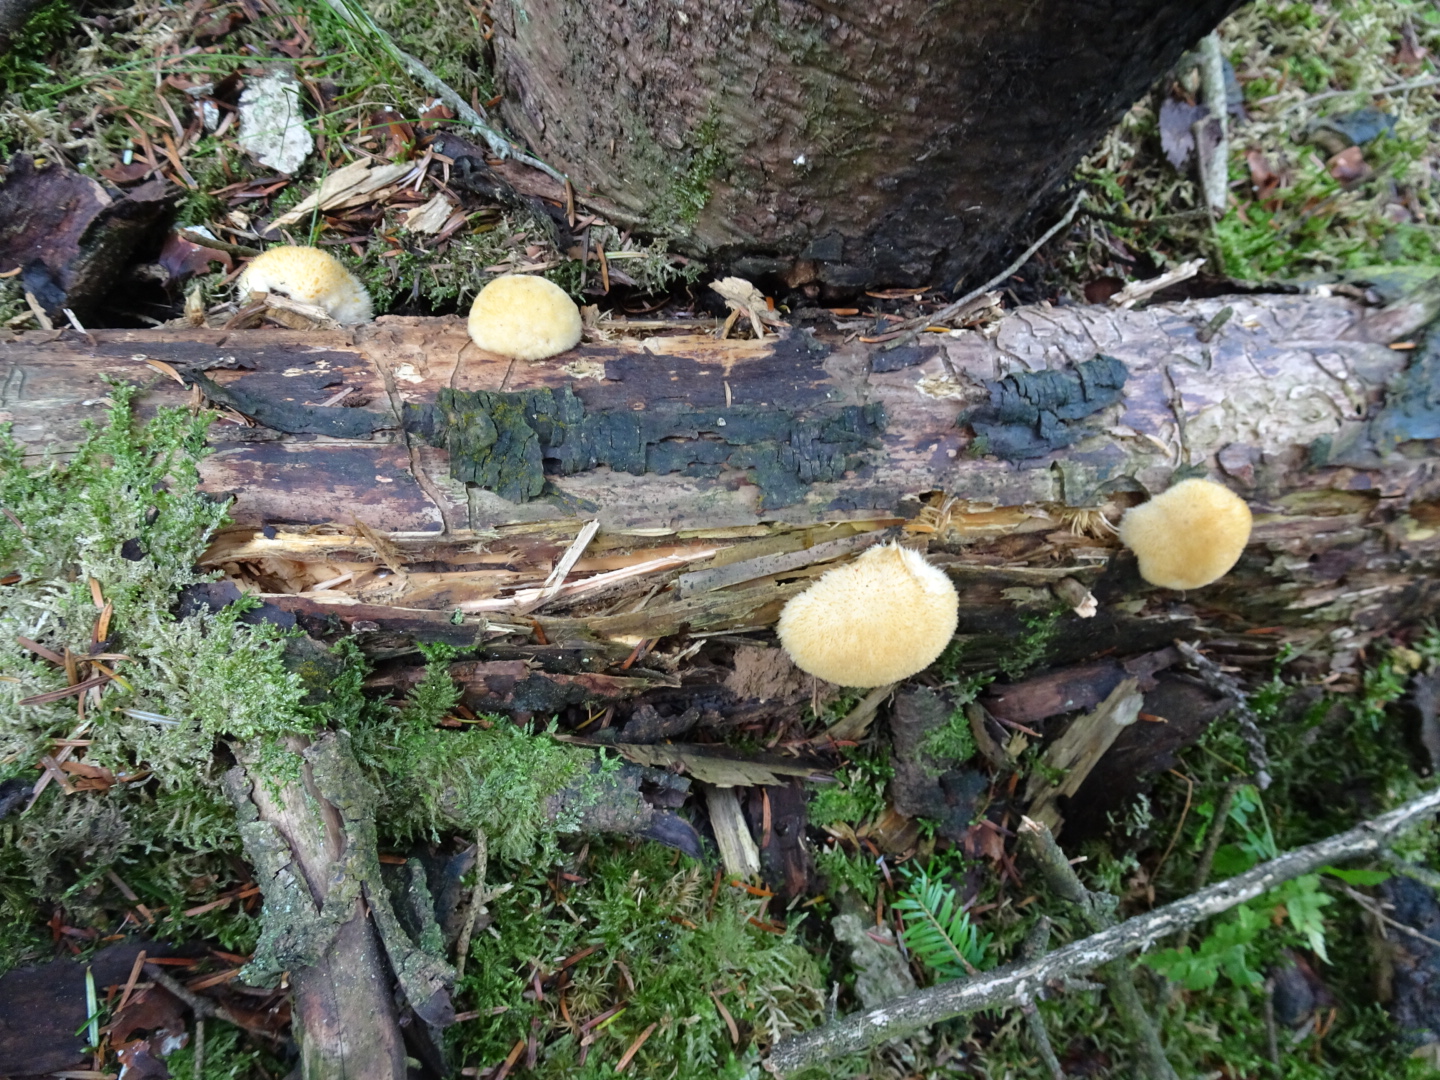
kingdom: Fungi
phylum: Basidiomycota
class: Agaricomycetes
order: Polyporales
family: Dacryobolaceae
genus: Postia
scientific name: Postia ptychogaster
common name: støvende kødporesvamp
